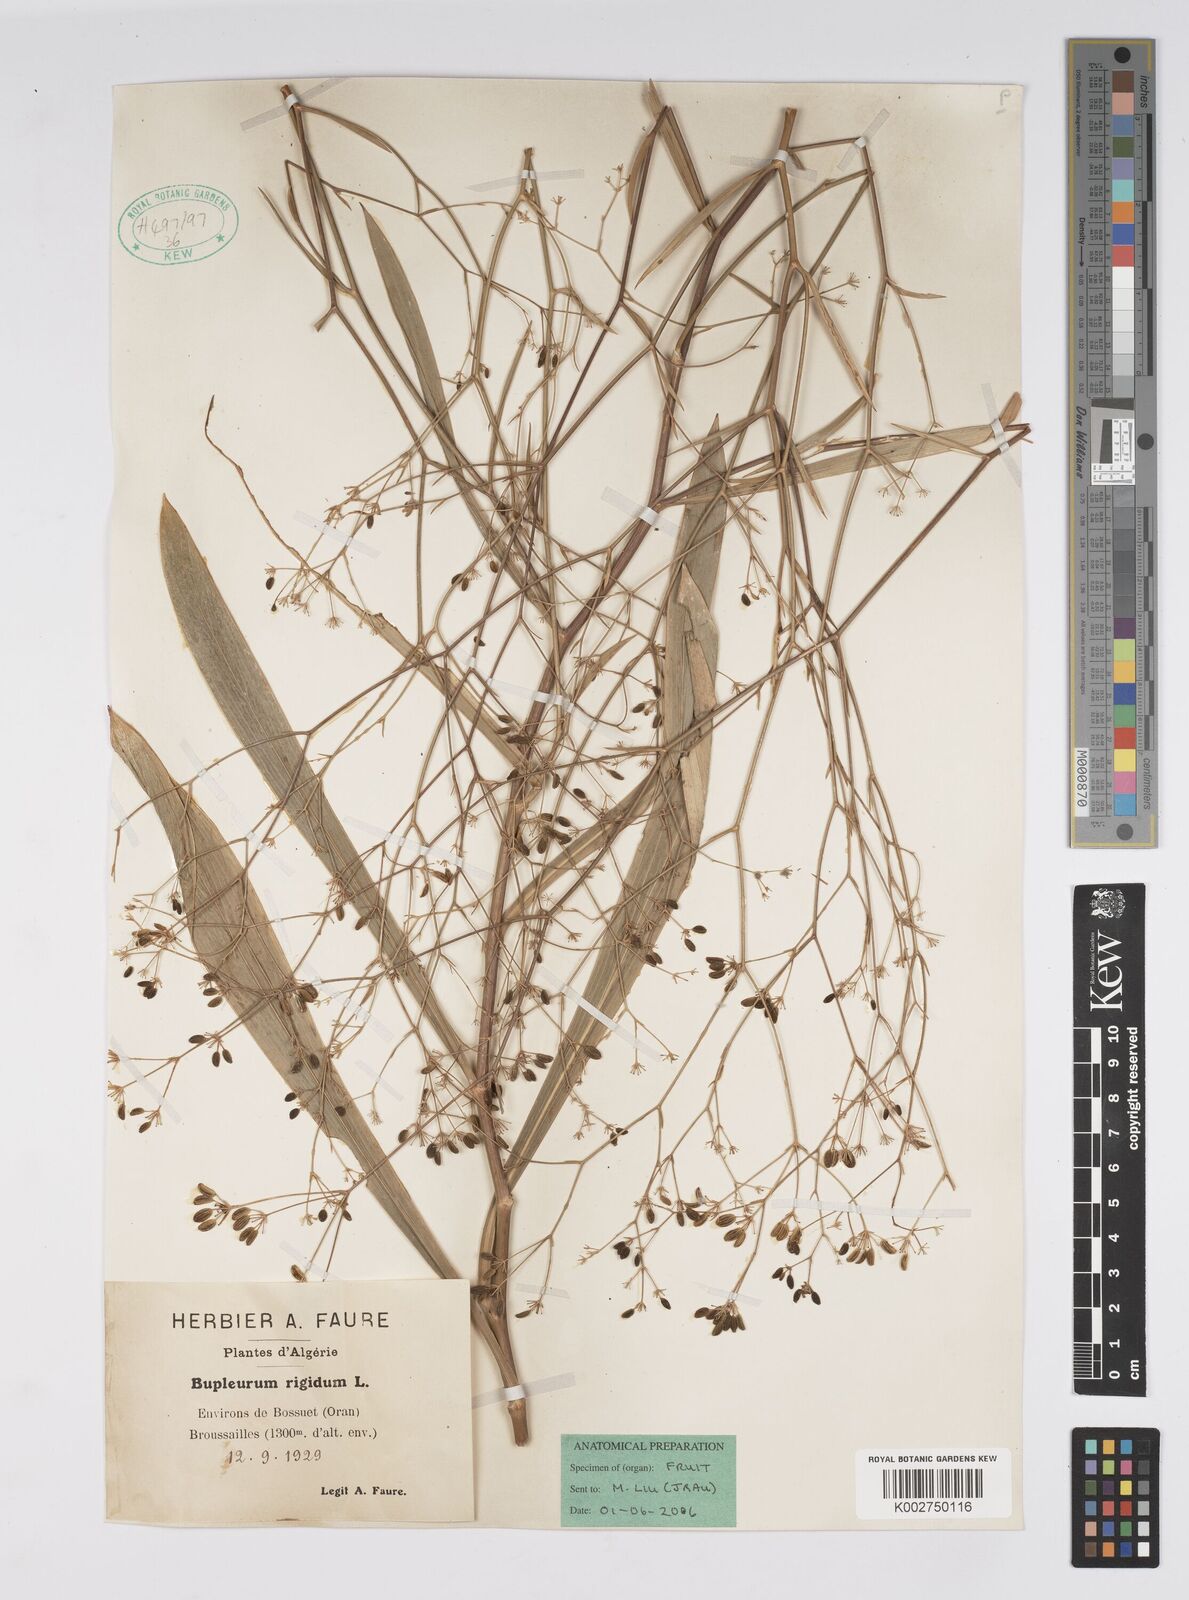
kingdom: Plantae
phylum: Tracheophyta
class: Magnoliopsida
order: Apiales
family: Apiaceae
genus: Bupleurum
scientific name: Bupleurum rigidum
